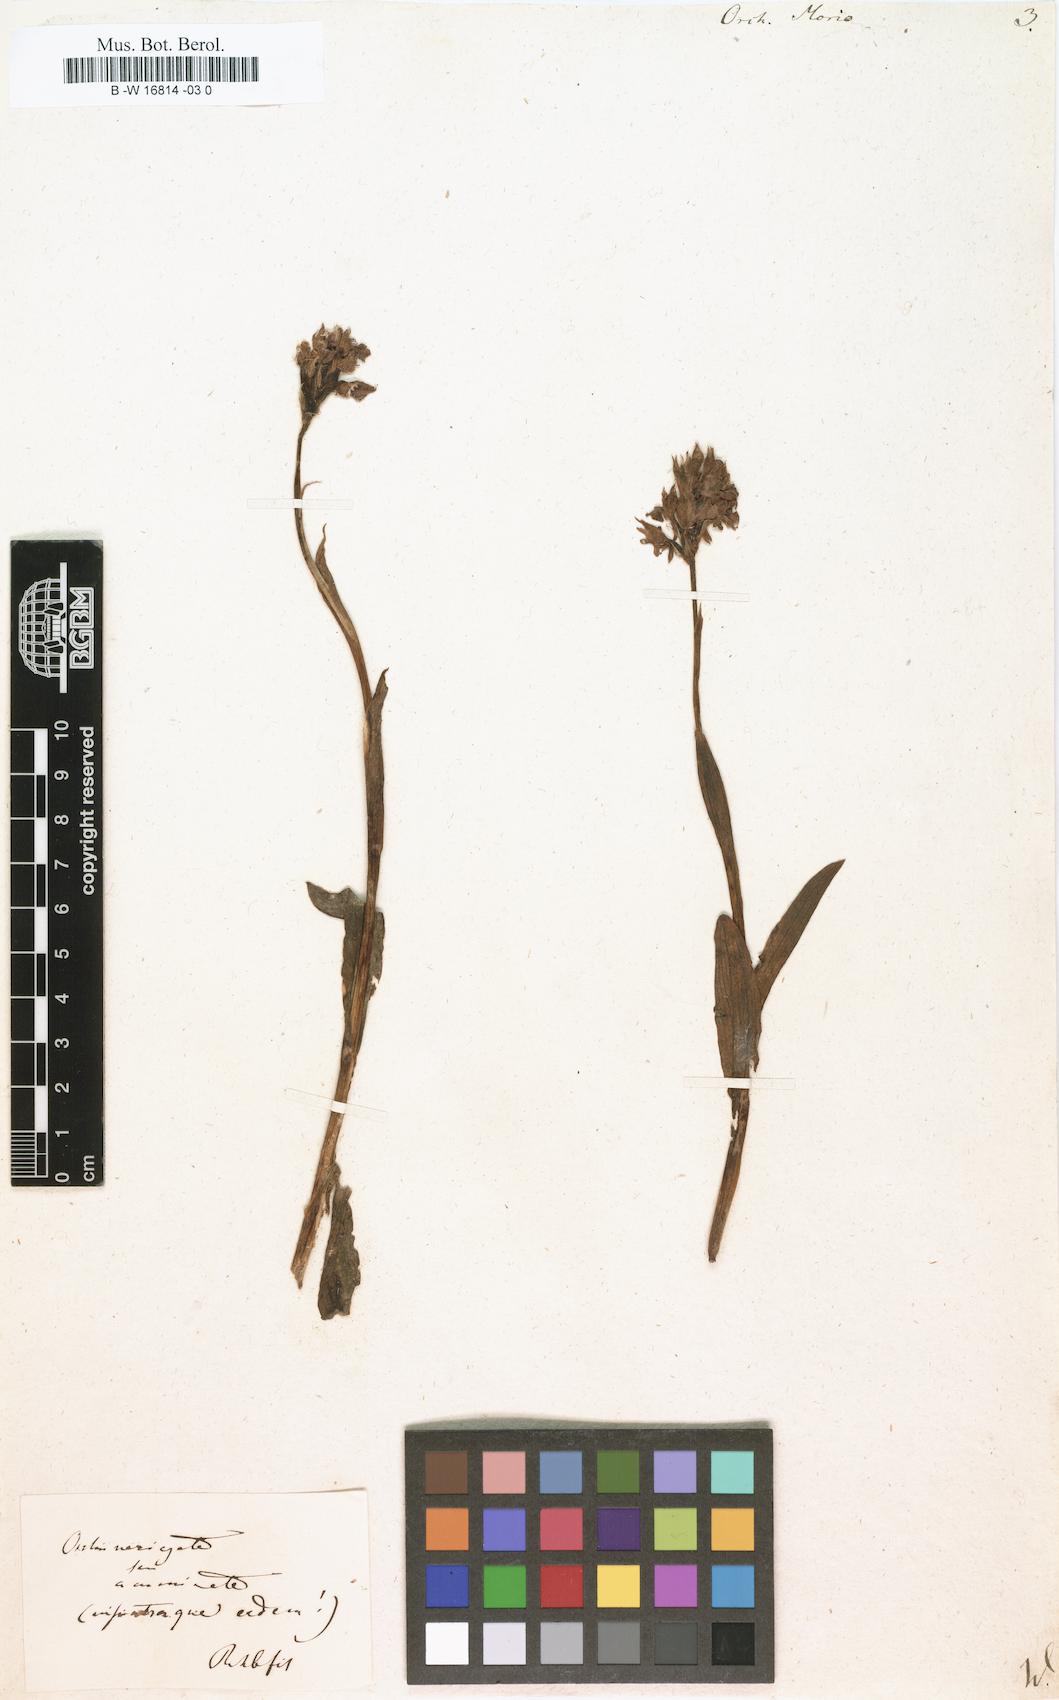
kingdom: Plantae
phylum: Tracheophyta
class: Liliopsida
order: Asparagales
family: Orchidaceae
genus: Anacamptis
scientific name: Anacamptis morio
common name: Green-winged orchid
